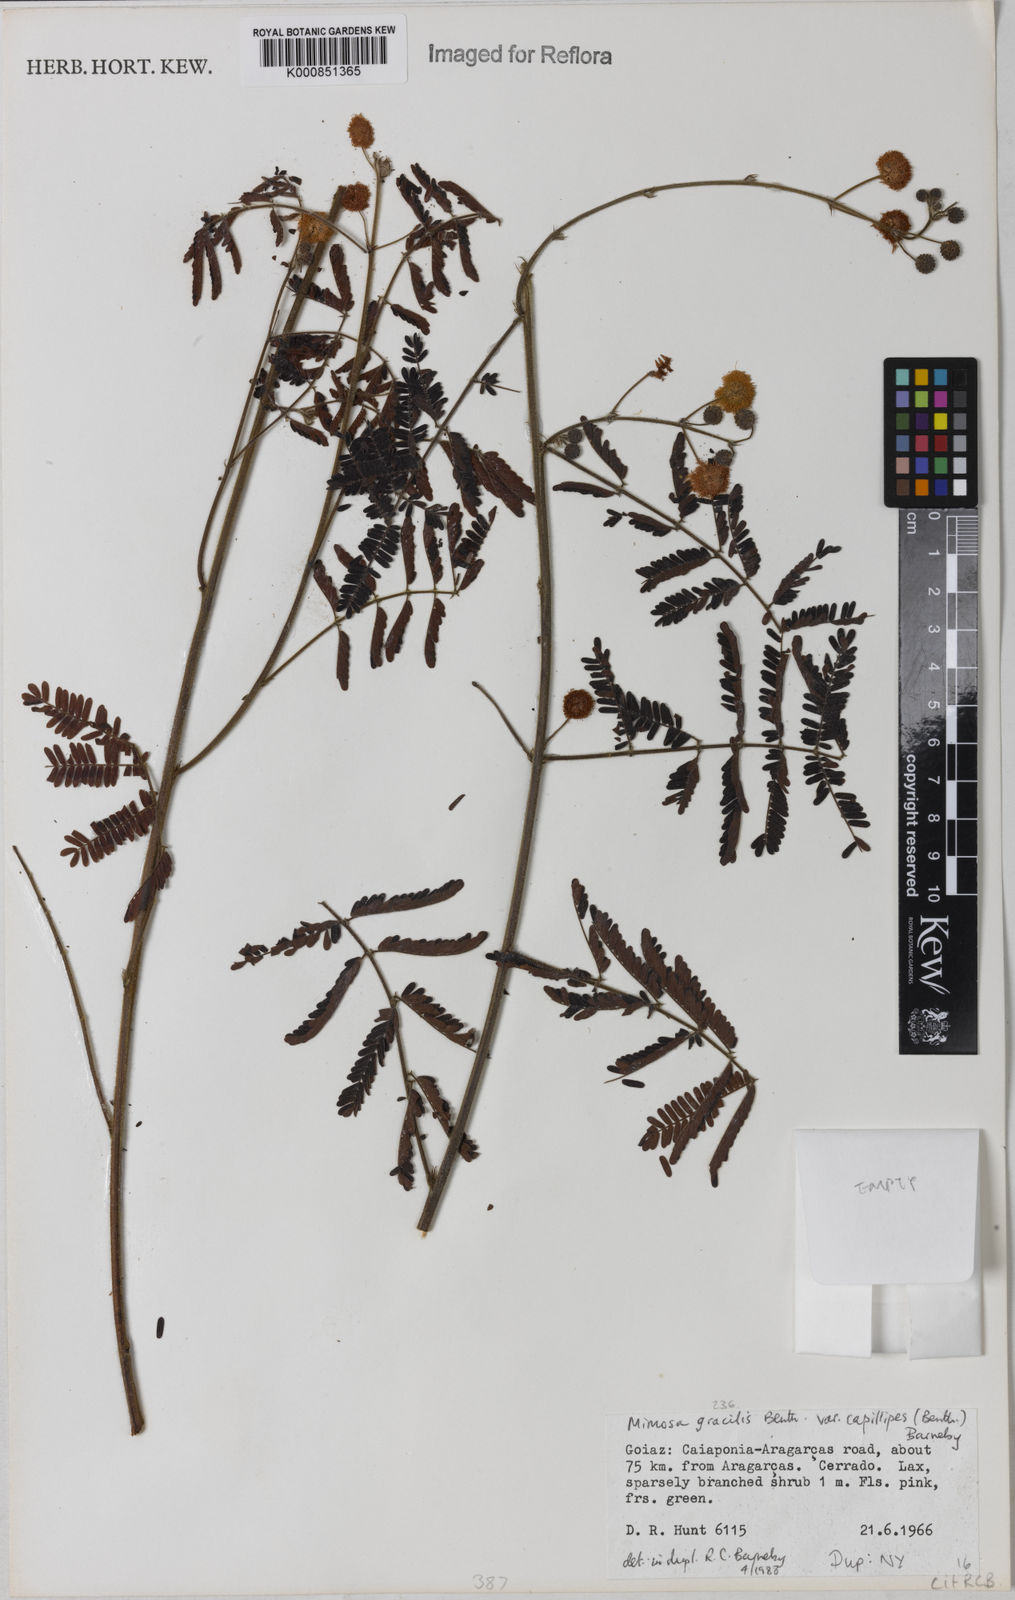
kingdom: Plantae
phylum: Tracheophyta
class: Magnoliopsida
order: Fabales
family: Fabaceae
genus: Mimosa
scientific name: Mimosa gracilis
